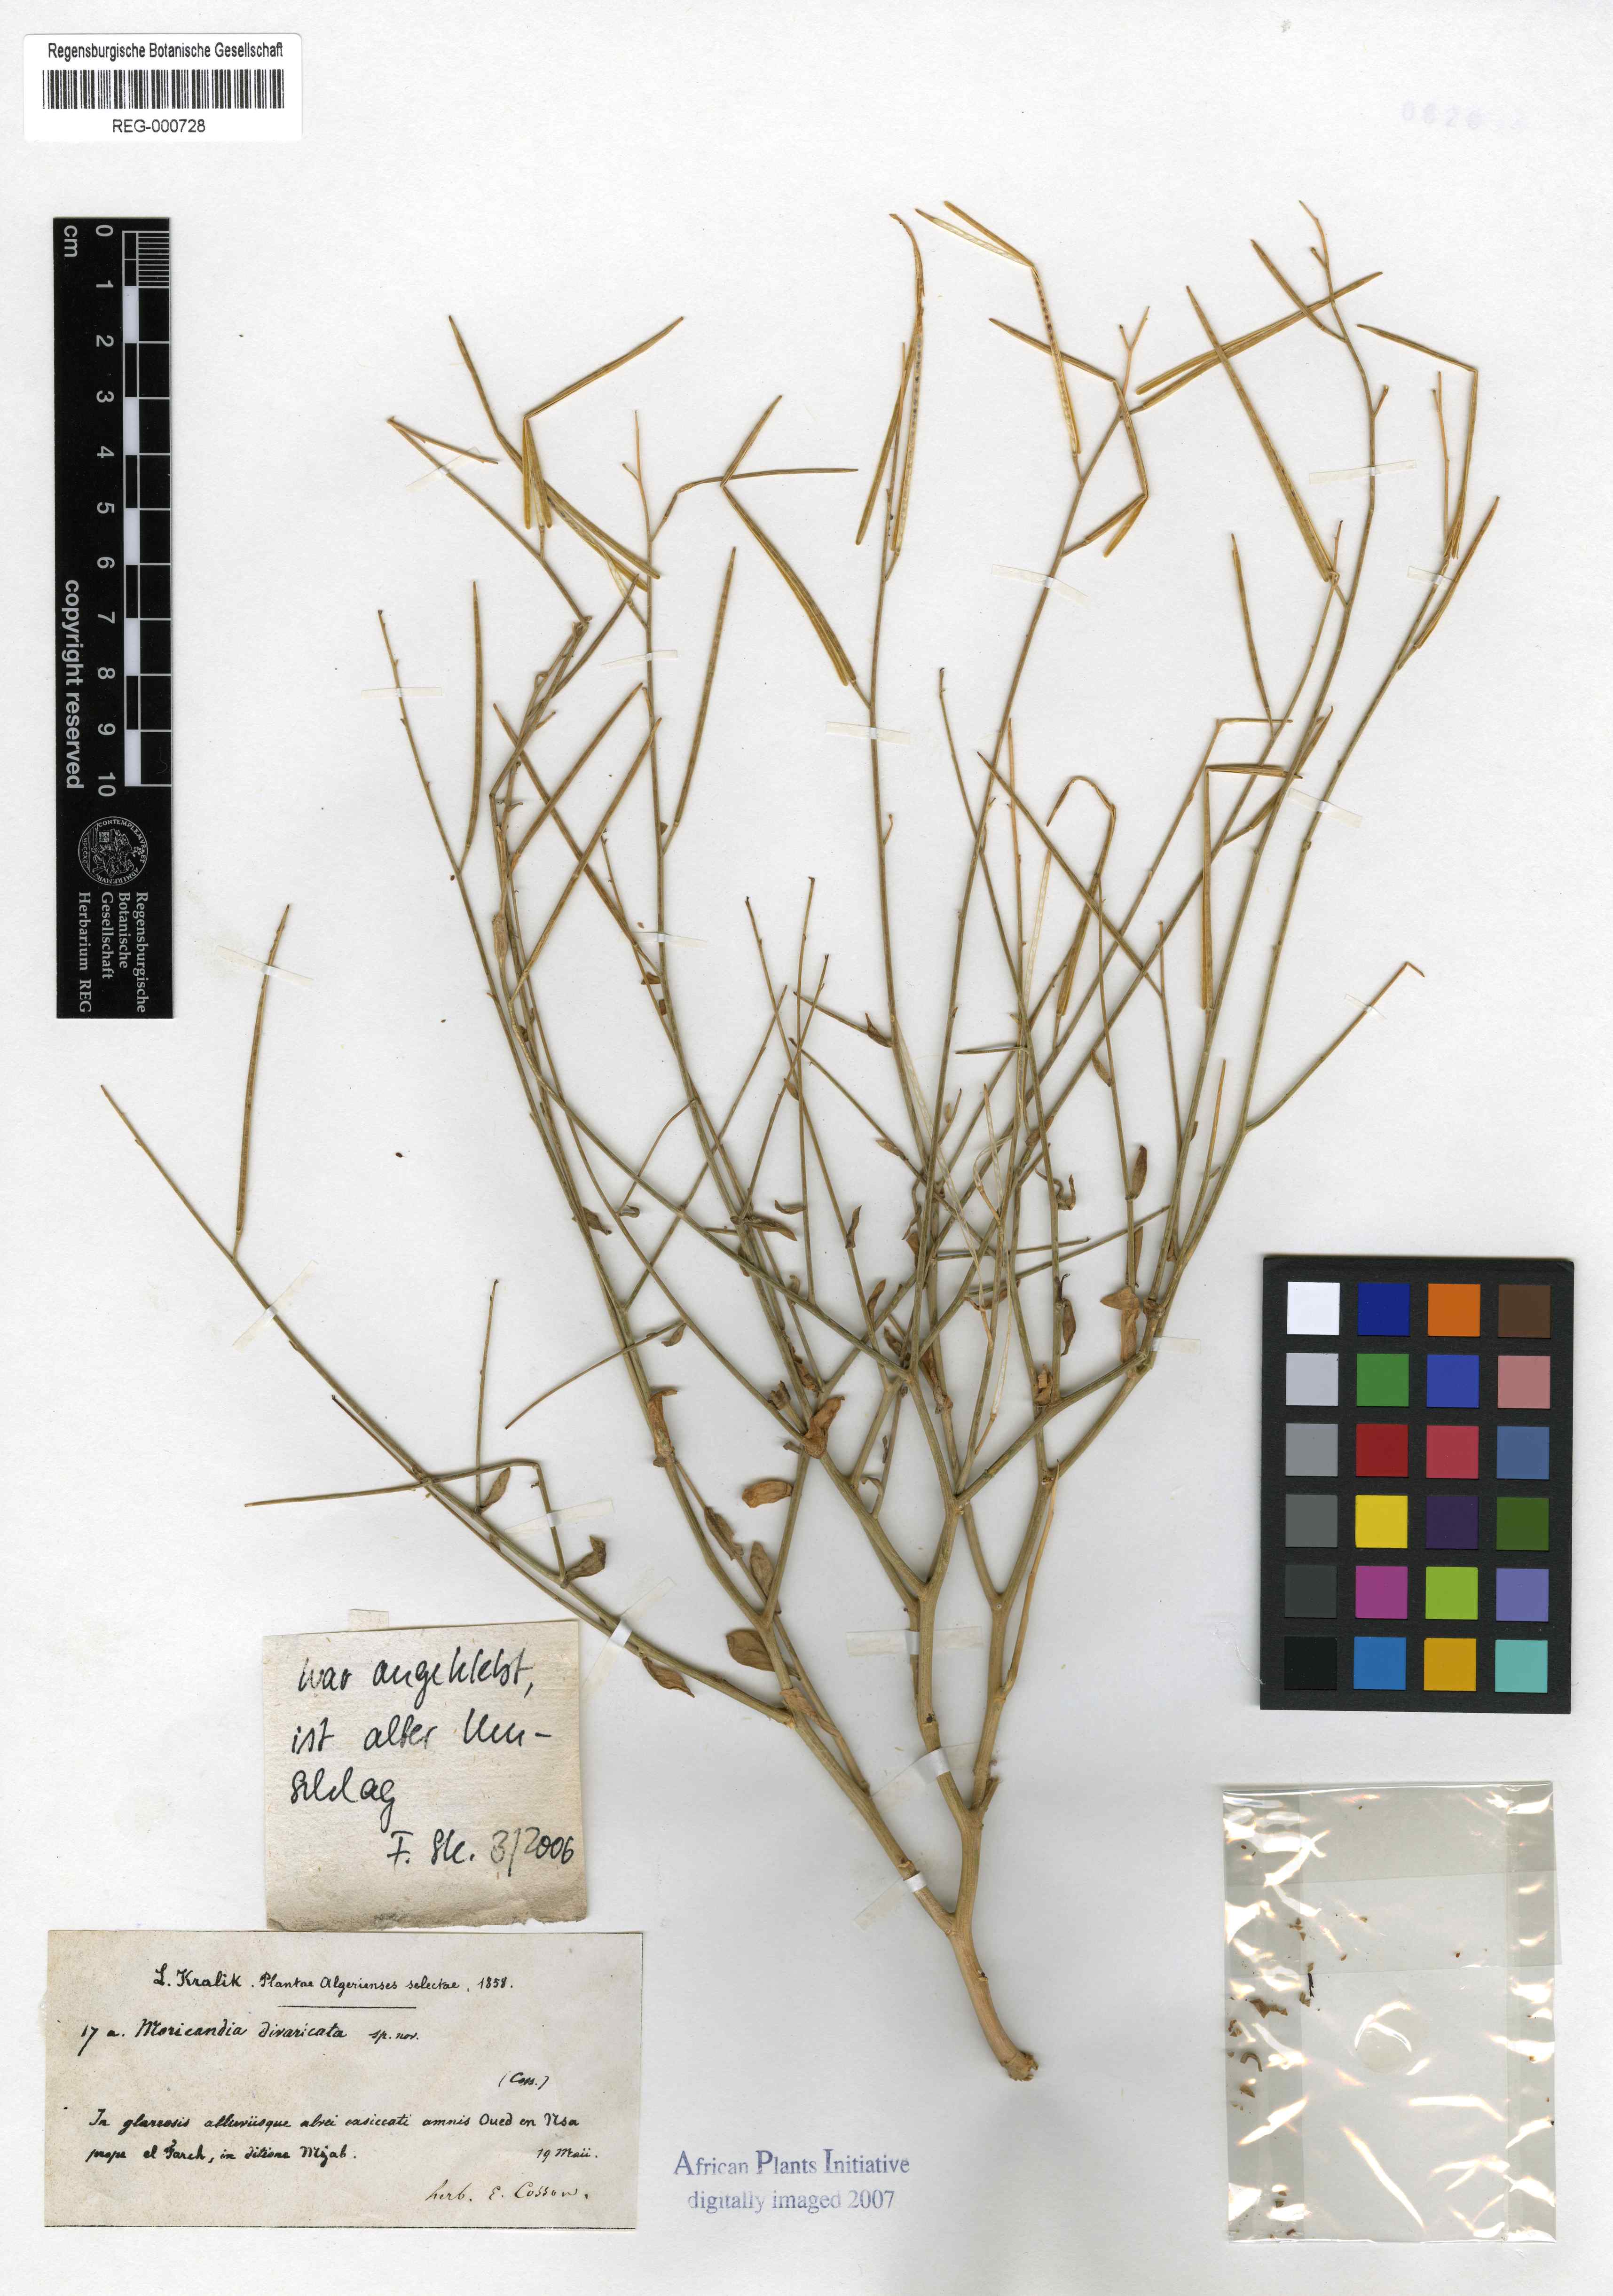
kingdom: Plantae
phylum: Tracheophyta
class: Magnoliopsida
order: Brassicales
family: Brassicaceae
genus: Moricandia
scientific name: Moricandia arvensis
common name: Purple mistress
